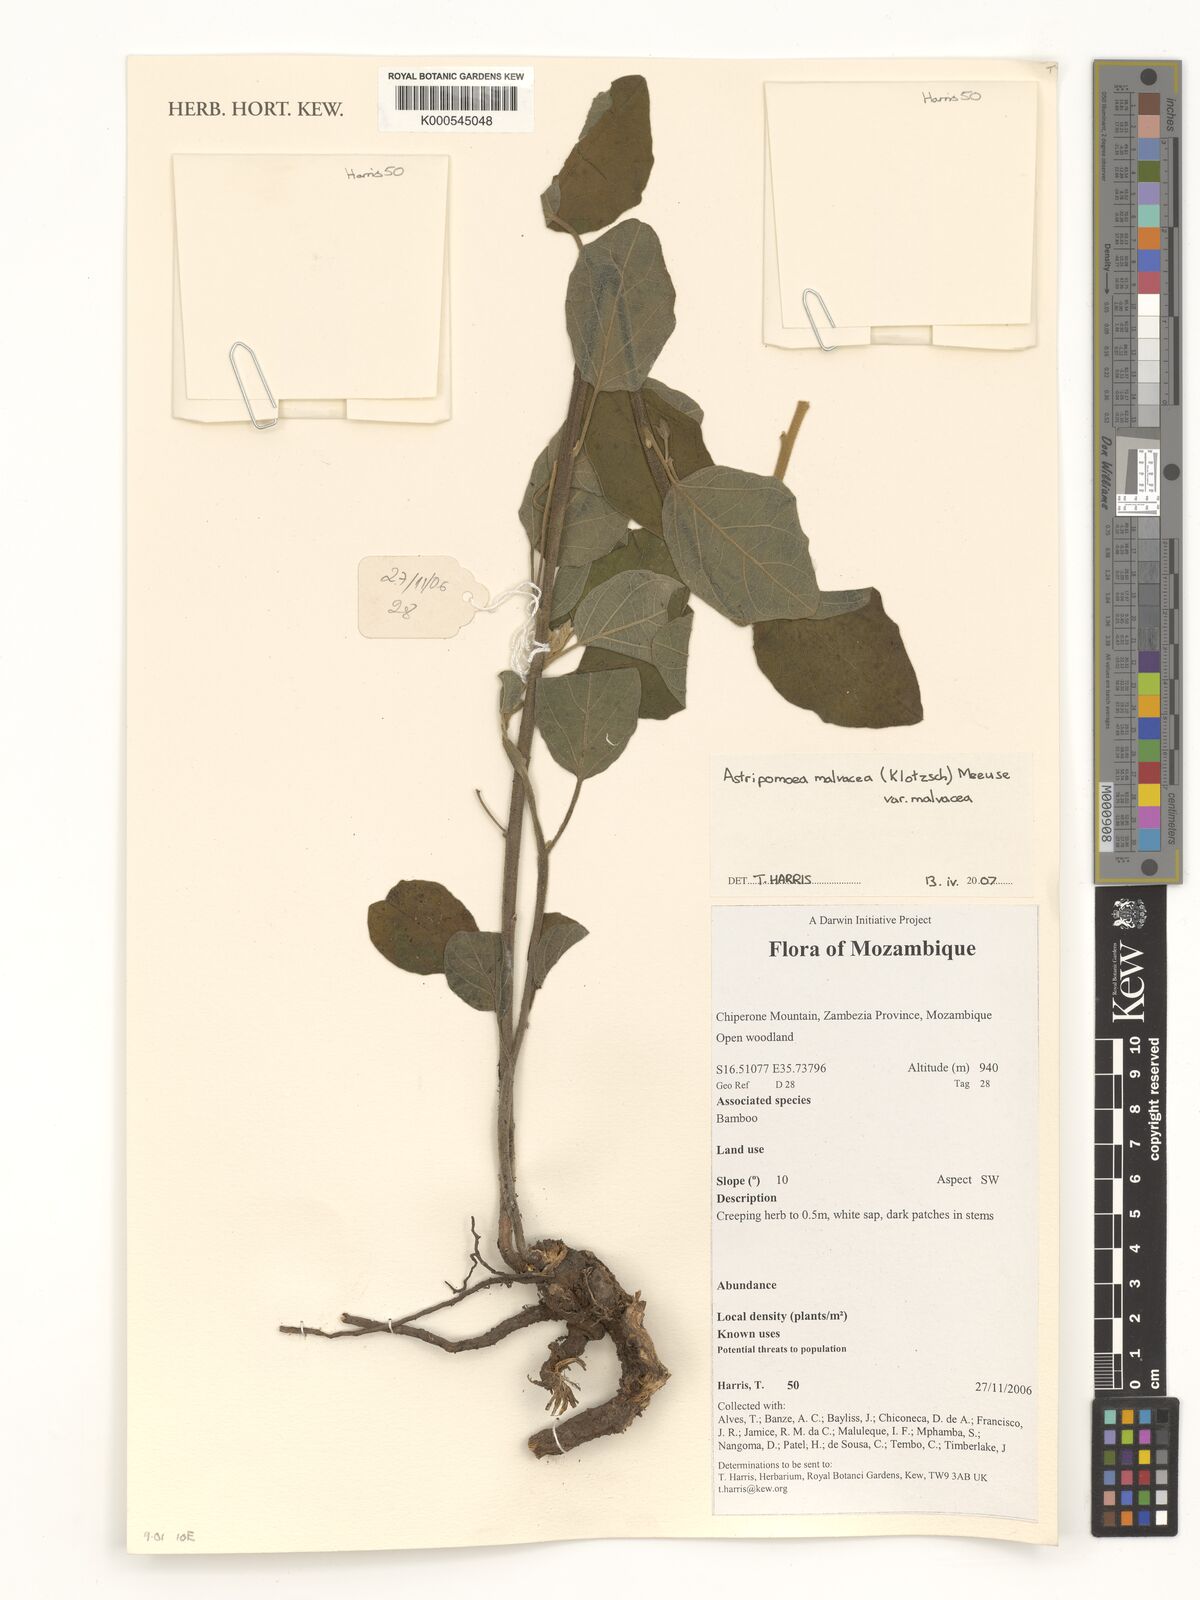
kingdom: Plantae
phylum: Tracheophyta
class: Magnoliopsida
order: Solanales
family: Convolvulaceae
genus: Astripomoea
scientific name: Astripomoea malvacea
